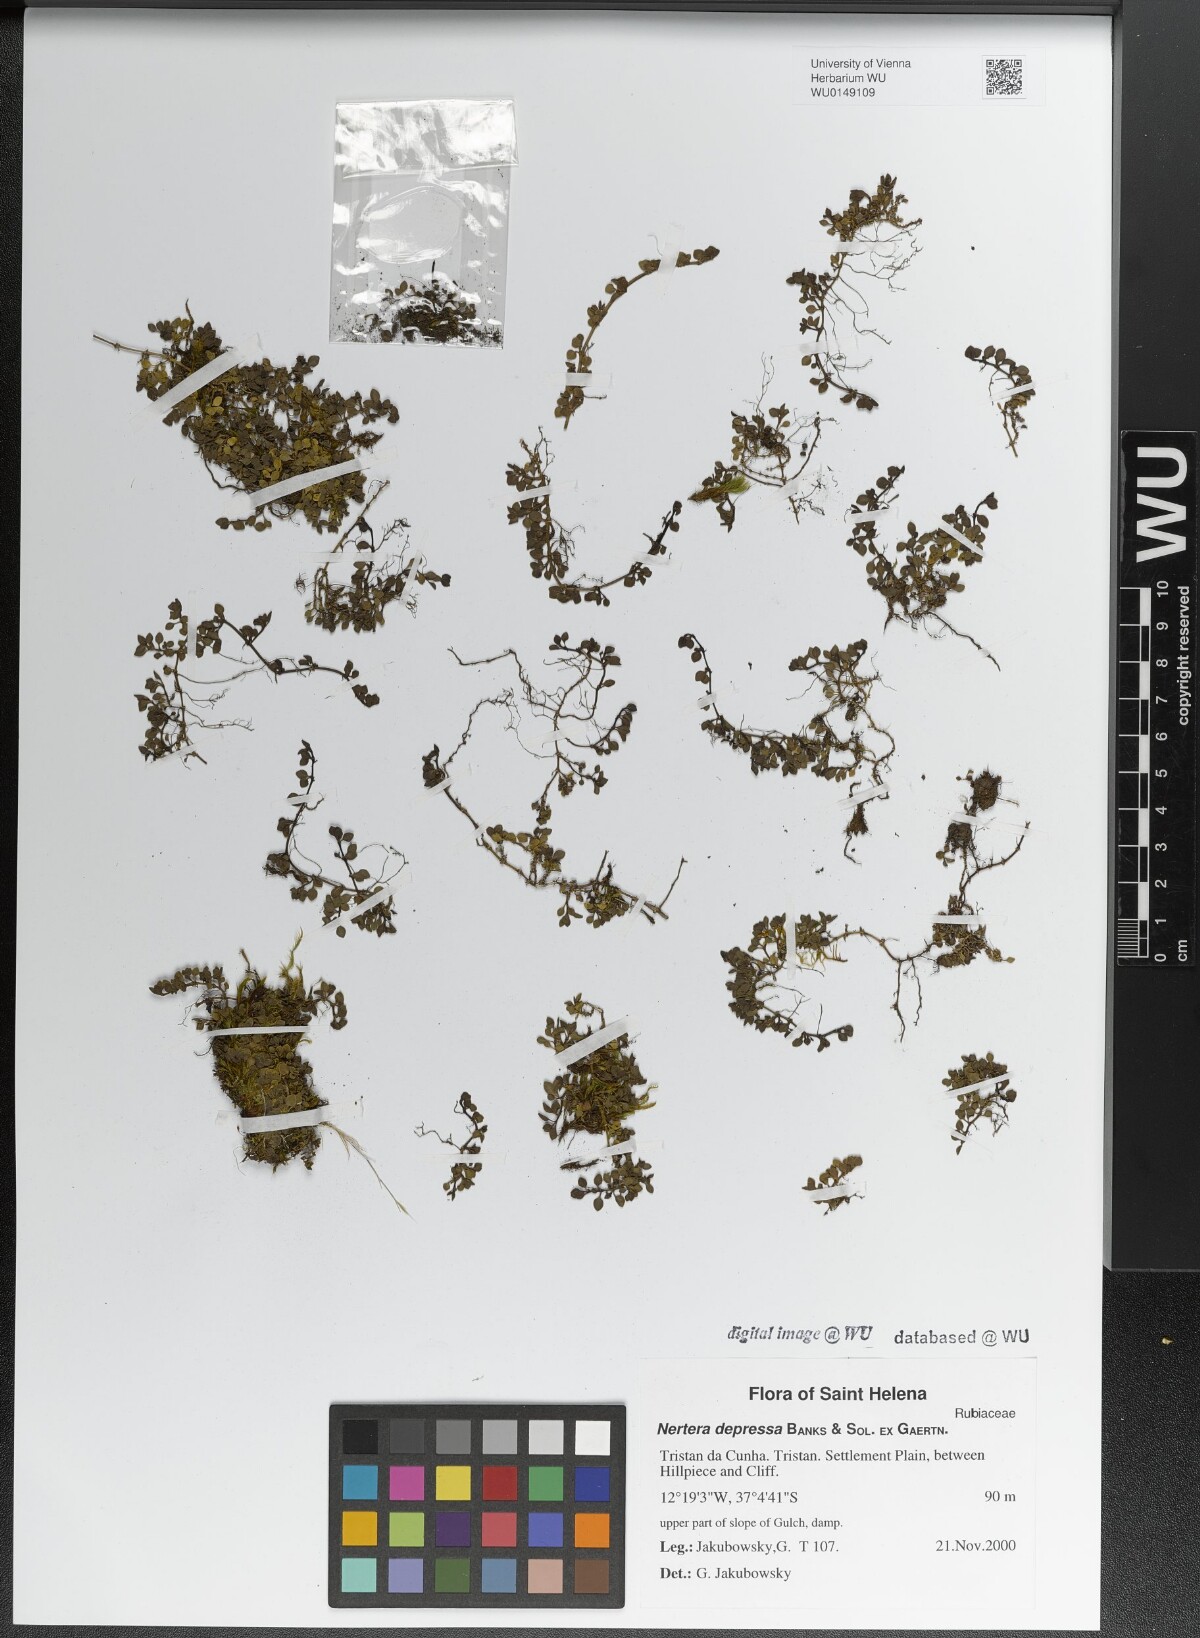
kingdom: Plantae
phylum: Tracheophyta
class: Magnoliopsida
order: Gentianales
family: Rubiaceae
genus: Nertera
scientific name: Nertera granadensis
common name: Beadplant
